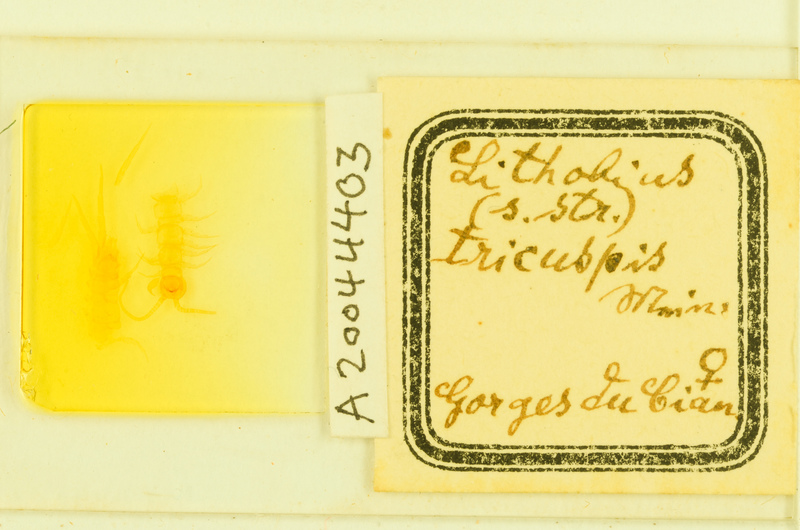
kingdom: Animalia
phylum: Arthropoda
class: Chilopoda
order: Lithobiomorpha
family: Lithobiidae
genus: Lithobius
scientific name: Lithobius tricuspis
